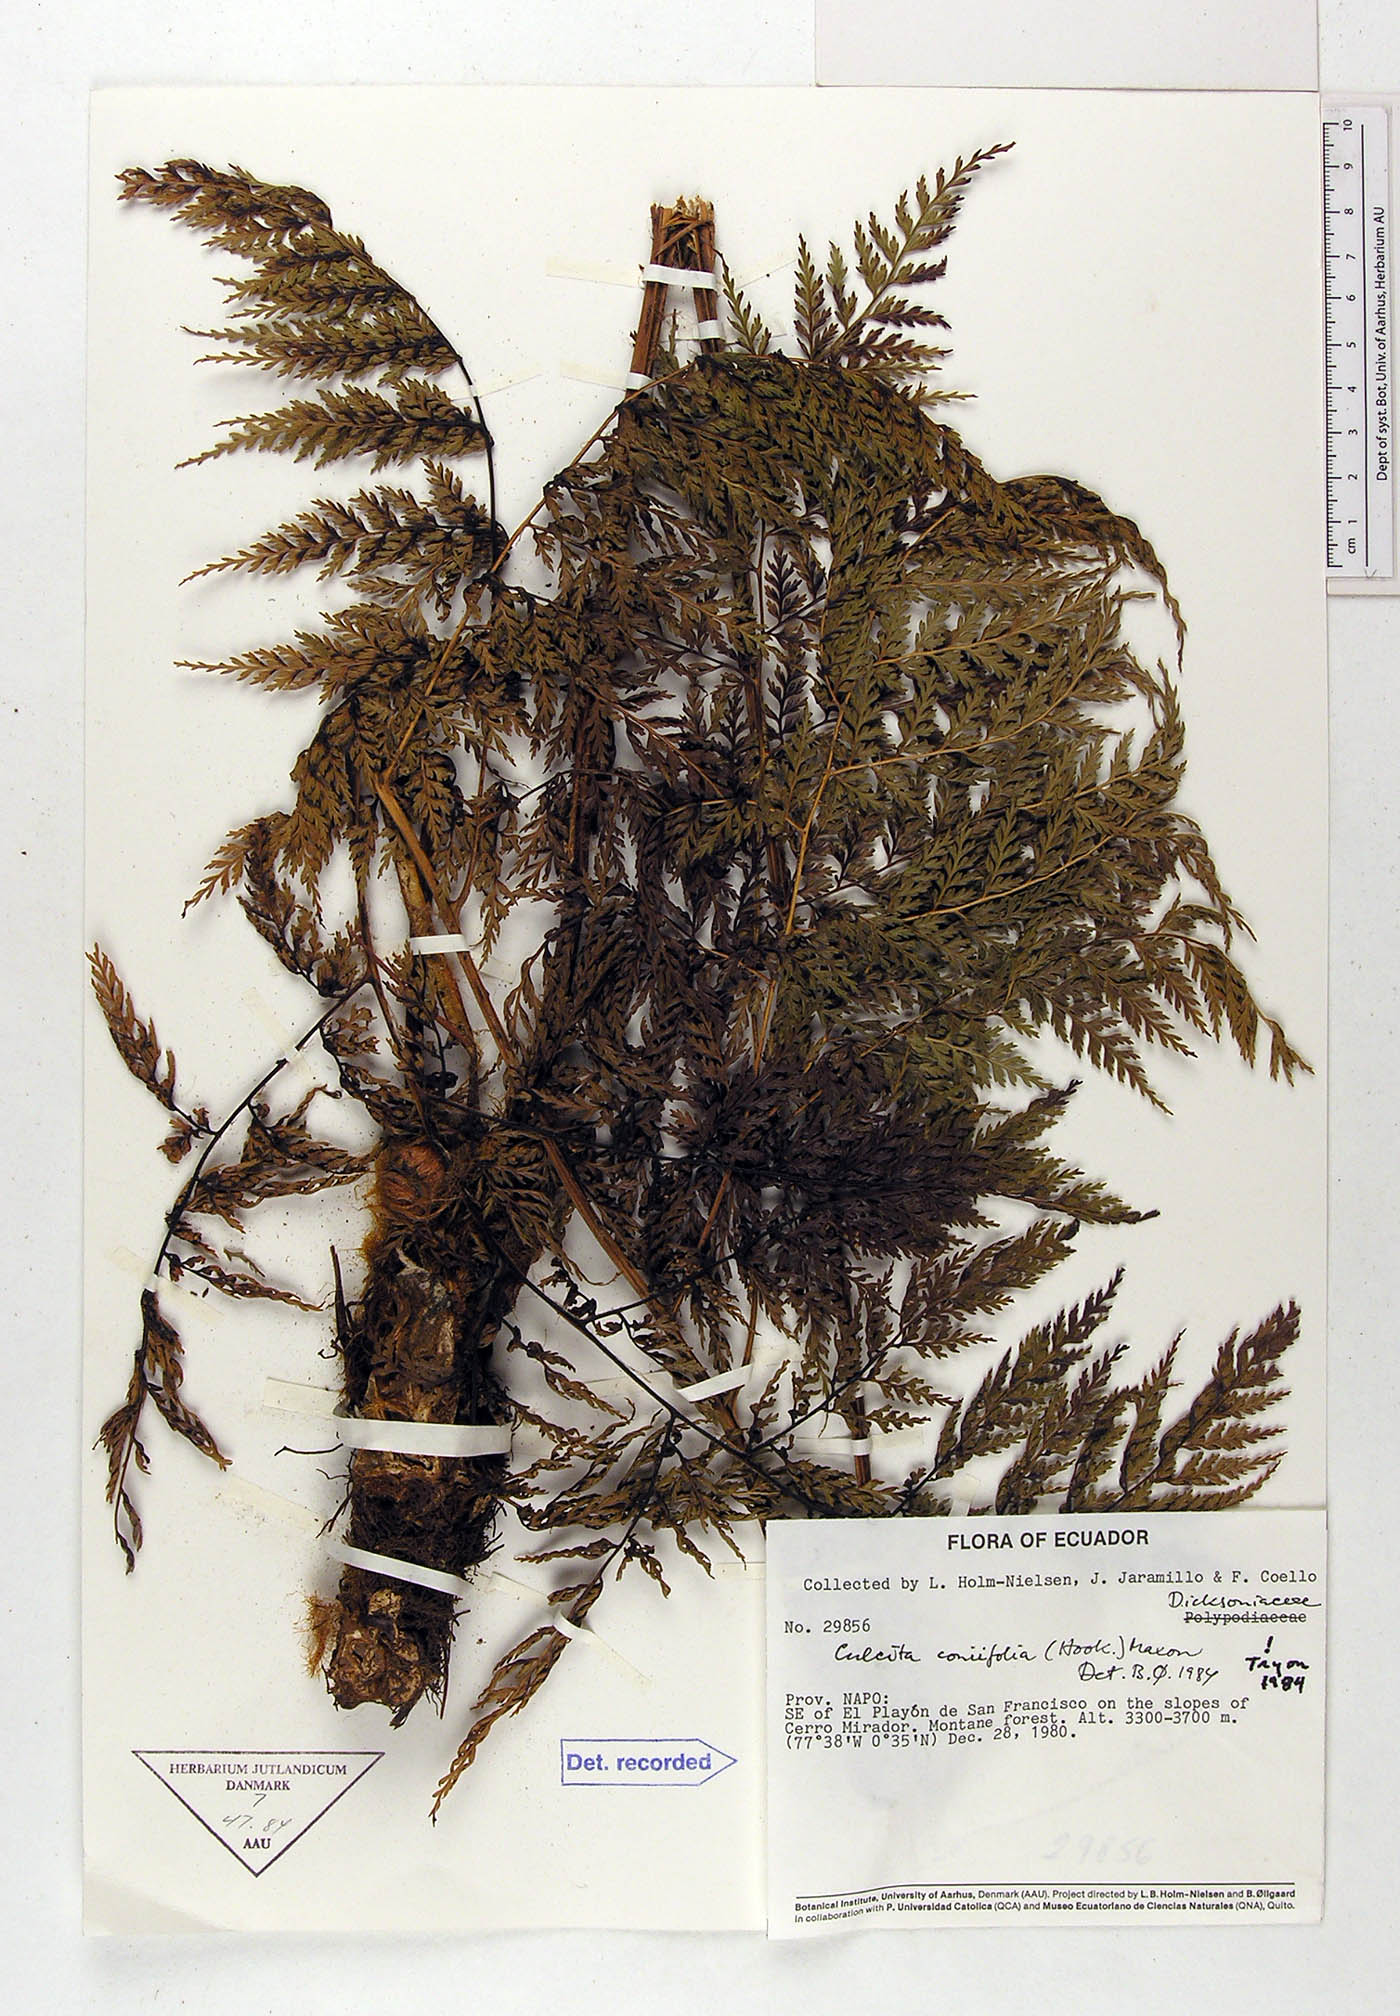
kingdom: Plantae
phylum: Tracheophyta
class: Polypodiopsida
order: Cyatheales
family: Culcitaceae
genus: Culcita
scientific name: Culcita coniifolia
